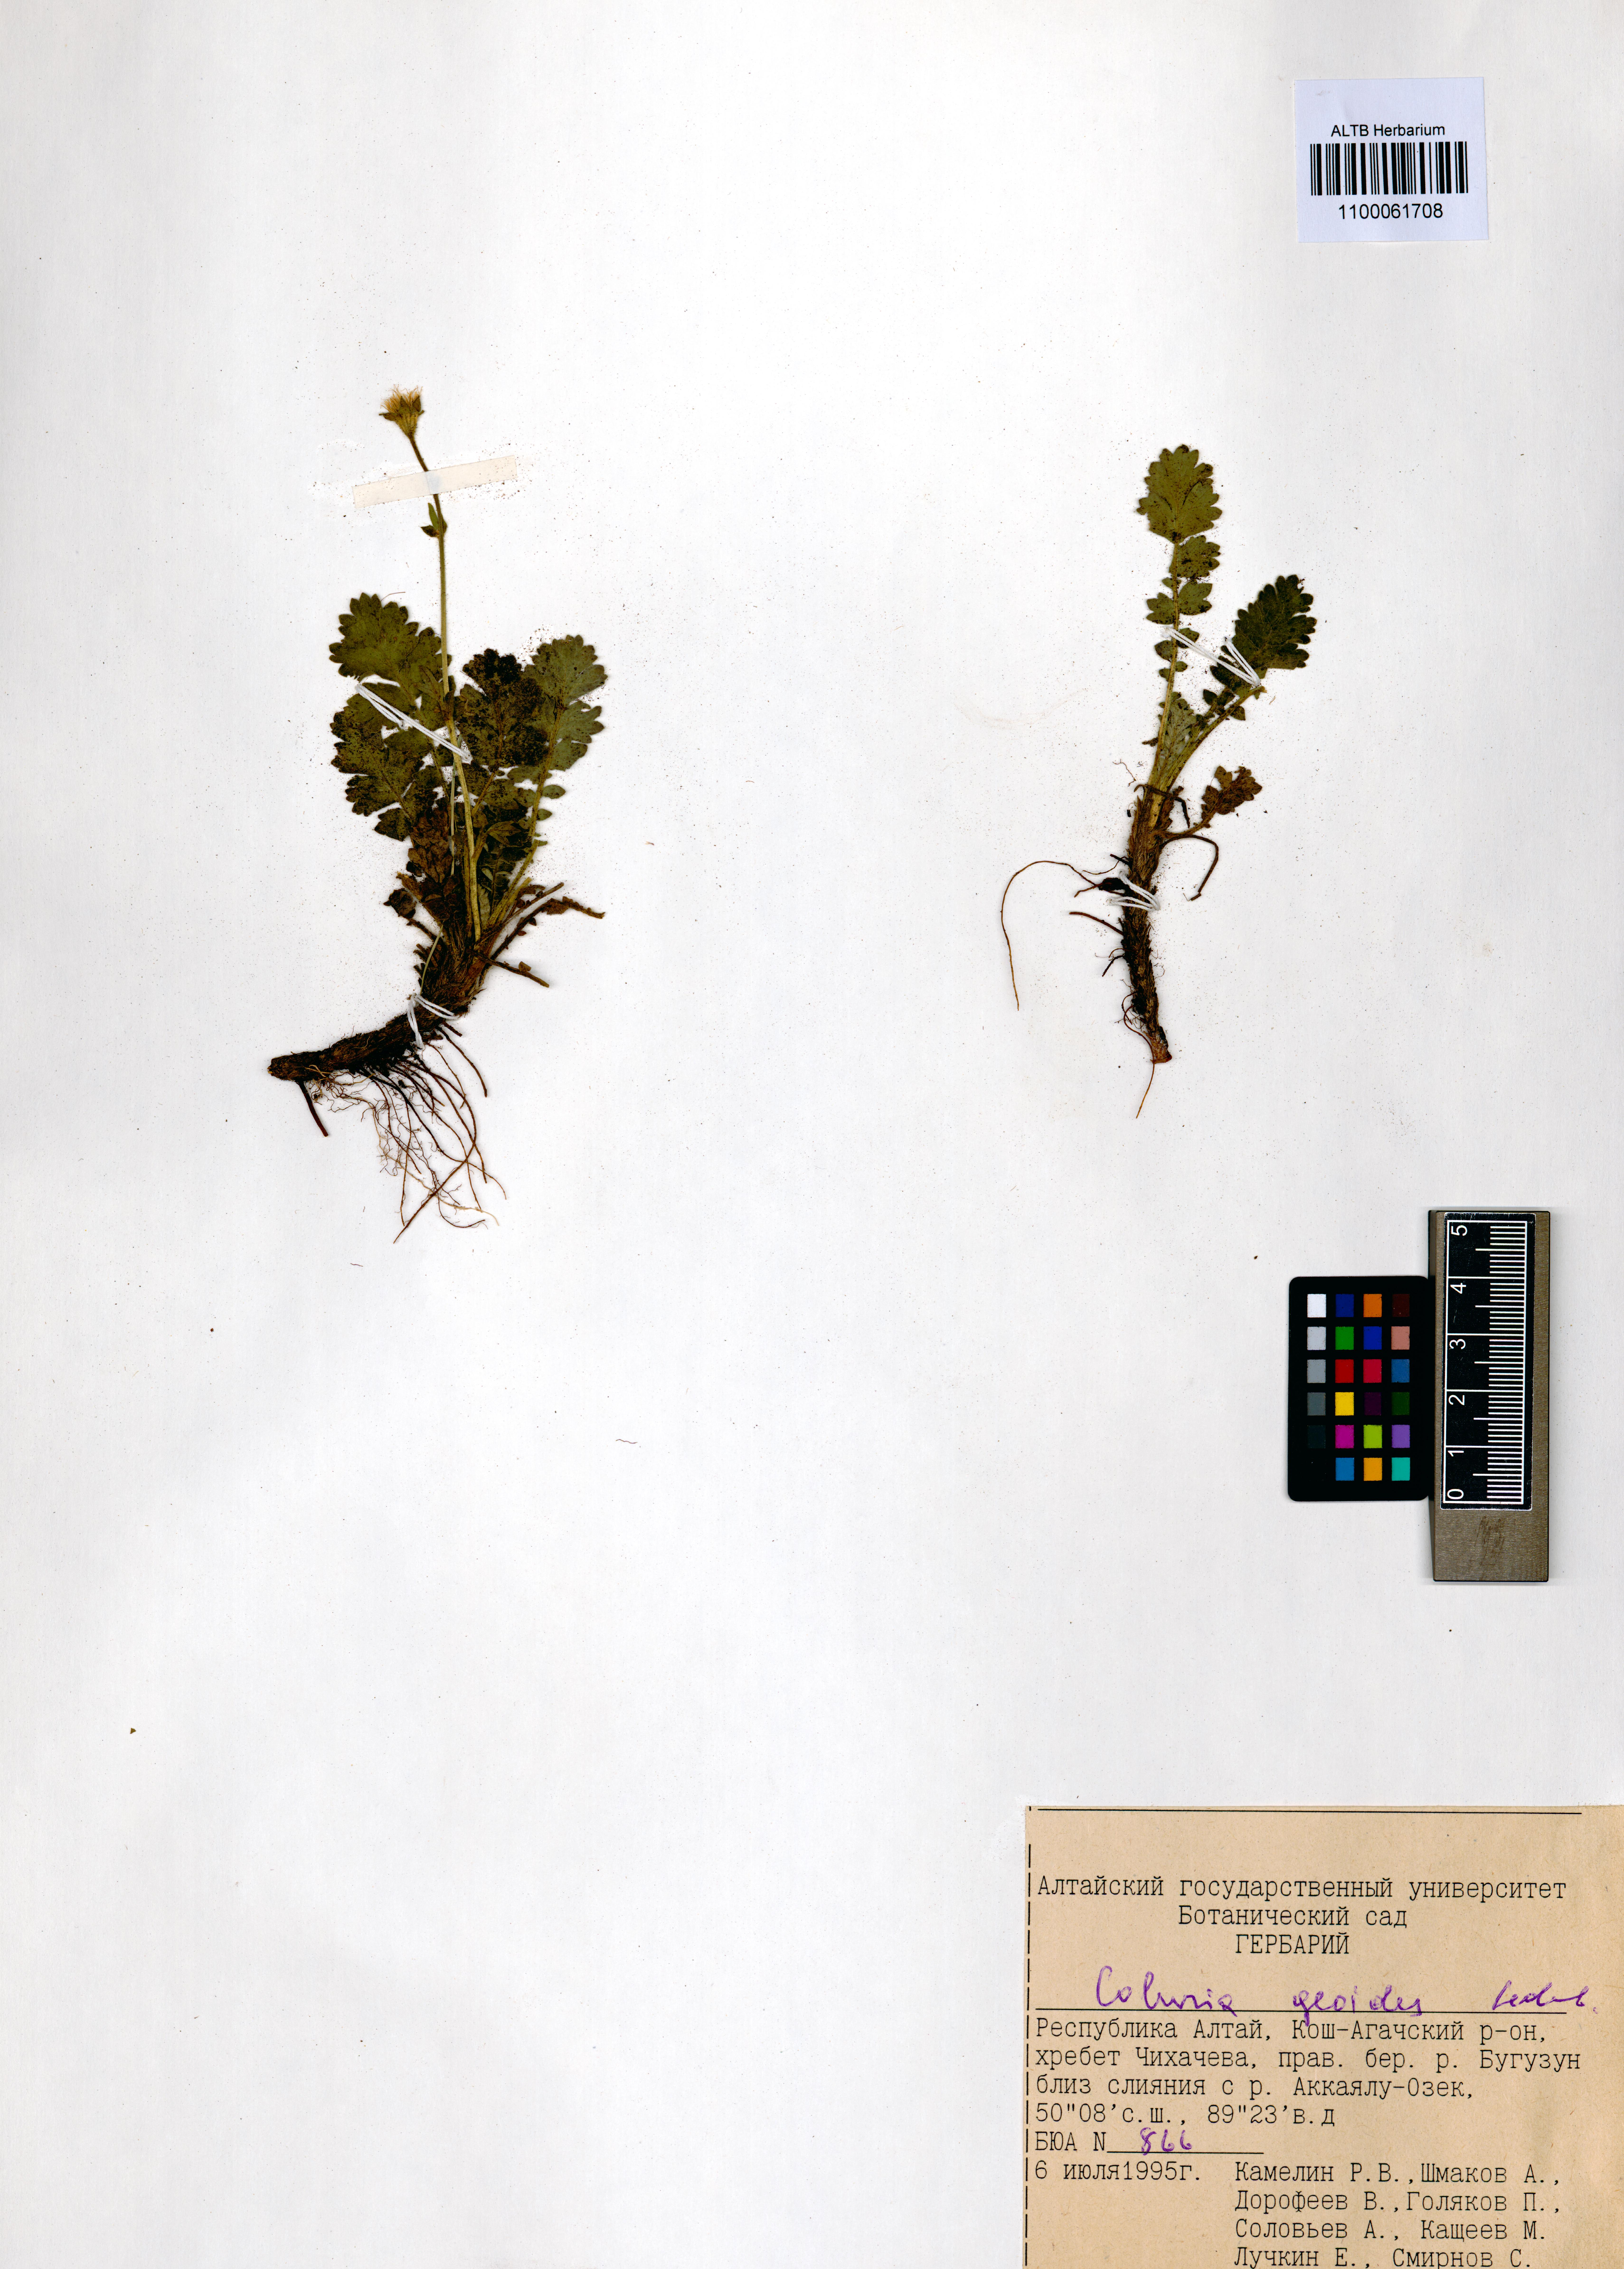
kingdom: Plantae
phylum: Tracheophyta
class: Magnoliopsida
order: Rosales
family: Rosaceae
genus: Geum
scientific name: Geum geoides
